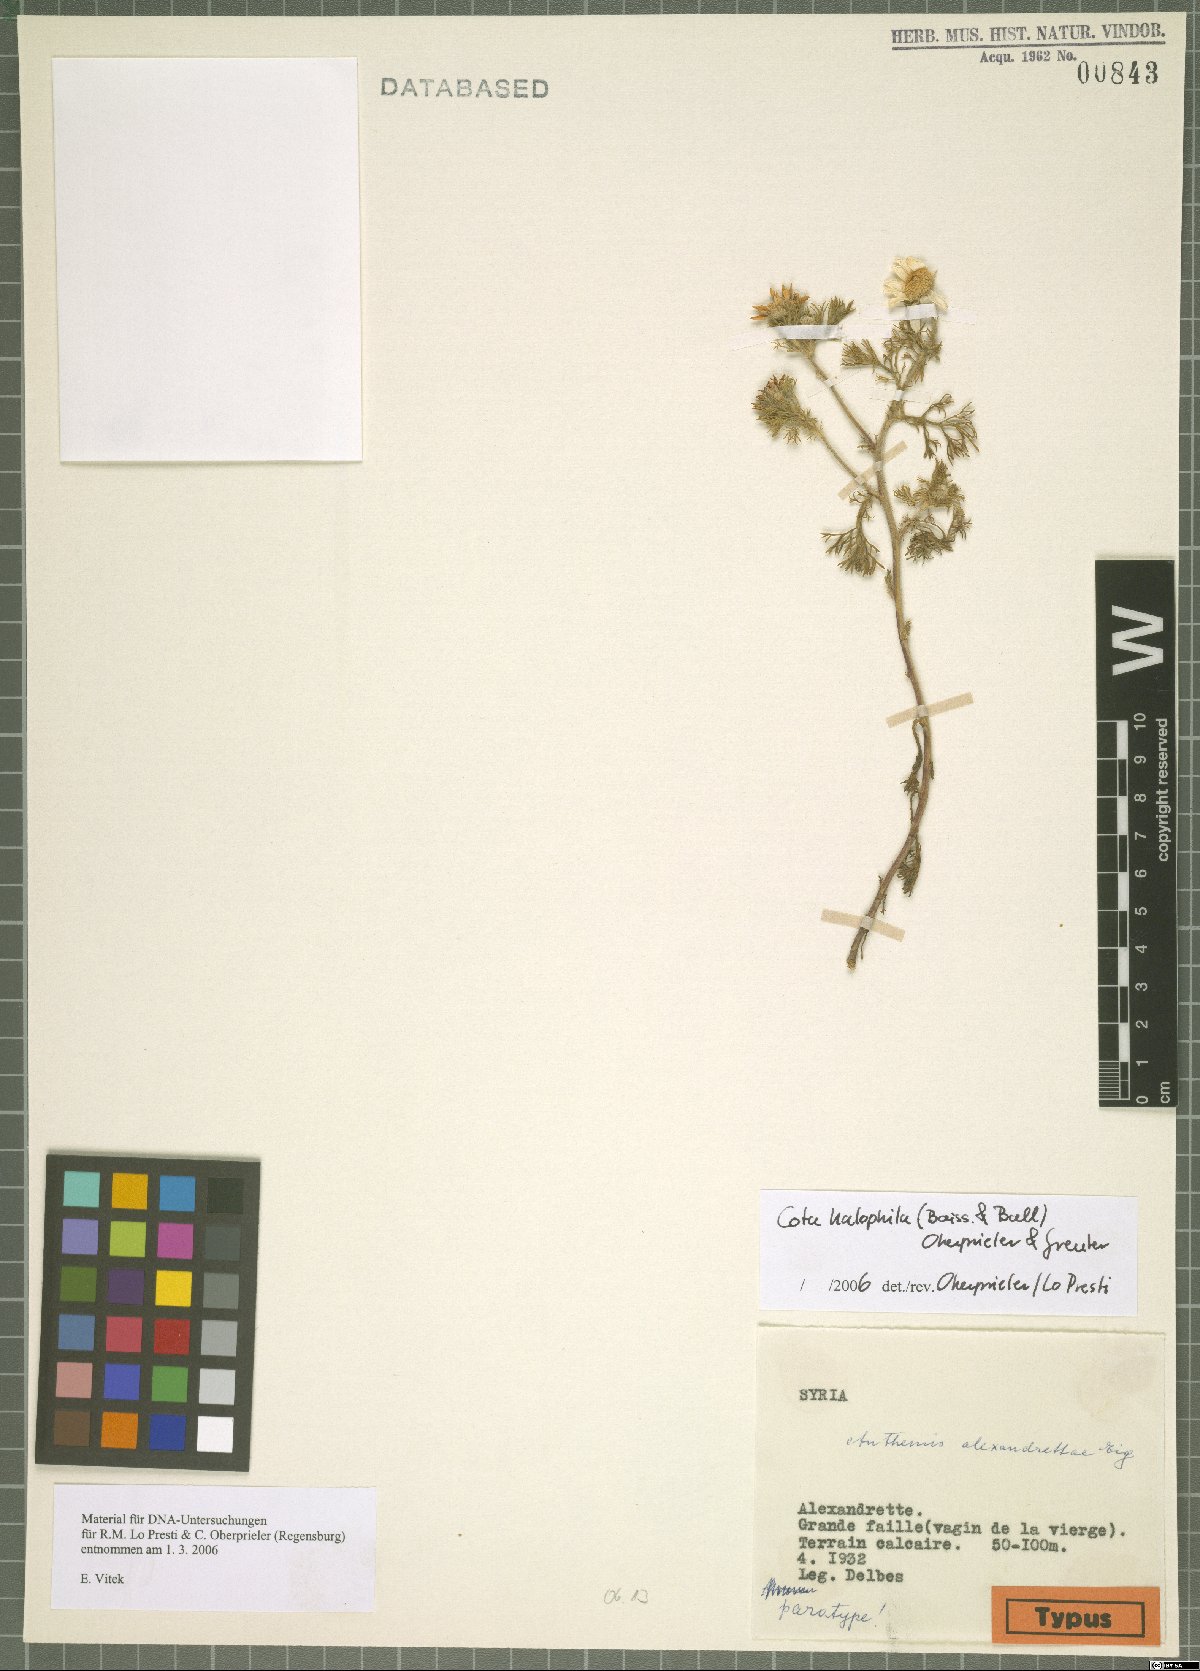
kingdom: Plantae
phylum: Tracheophyta
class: Magnoliopsida
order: Asterales
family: Asteraceae
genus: Cota
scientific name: Cota halophila
